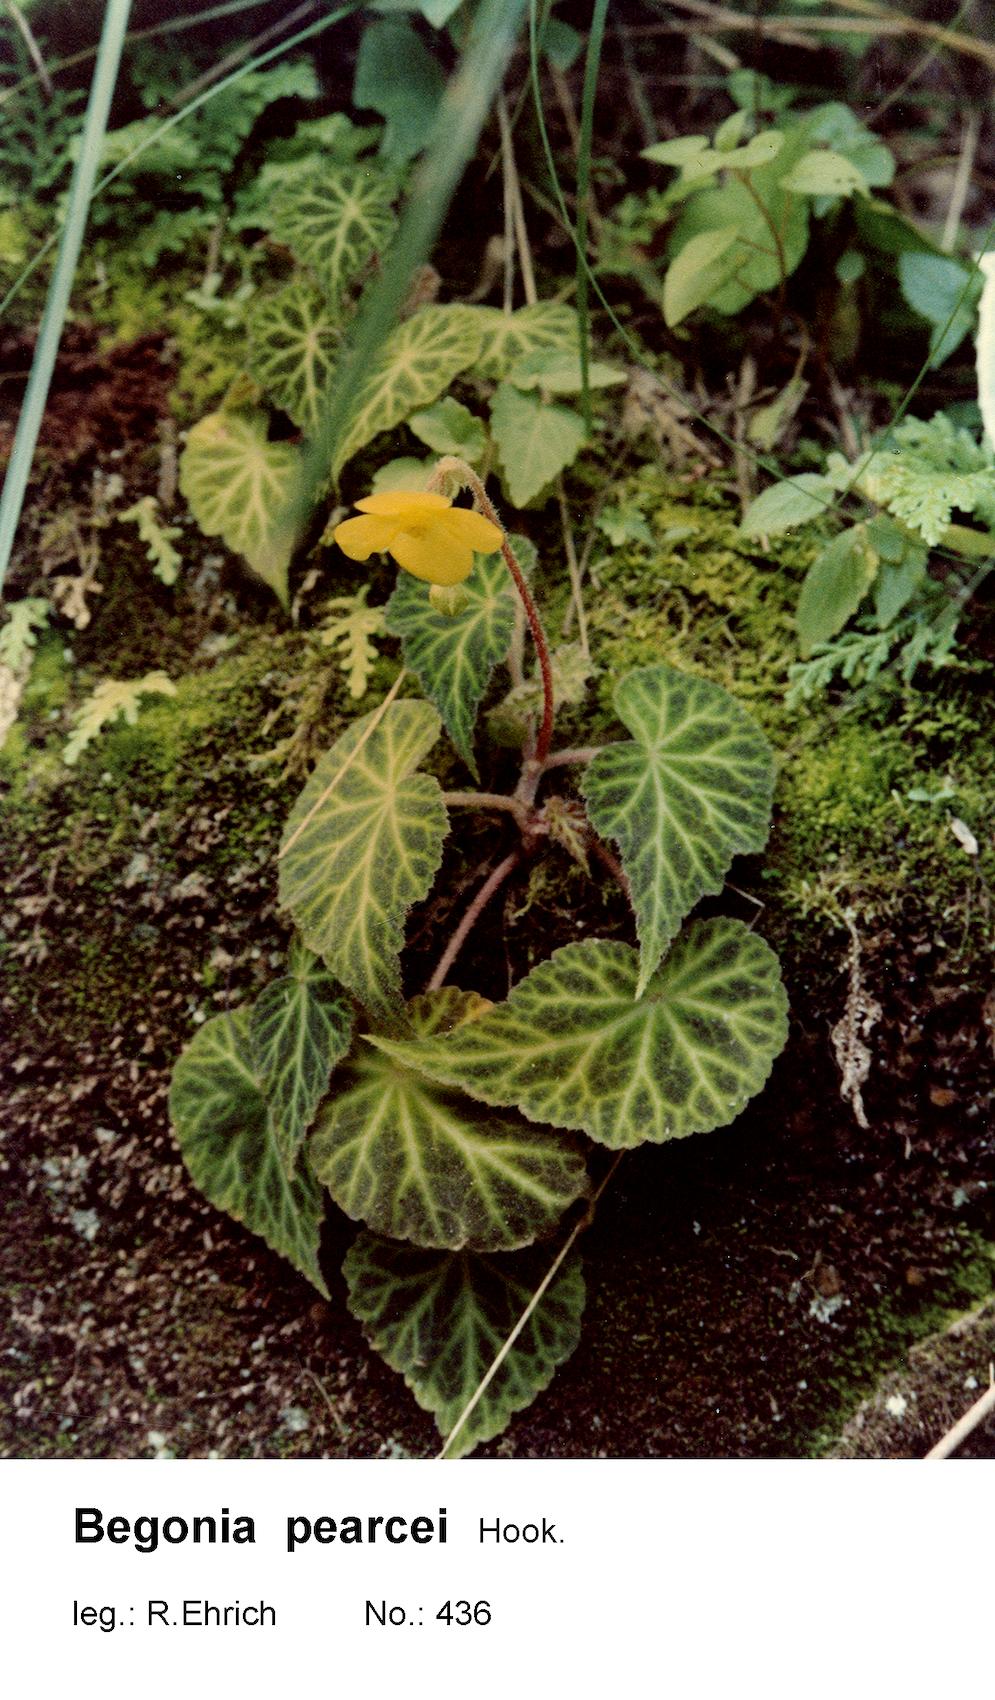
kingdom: Plantae
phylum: Tracheophyta
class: Magnoliopsida
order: Cucurbitales
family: Begoniaceae
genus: Begonia
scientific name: Begonia pearcei
